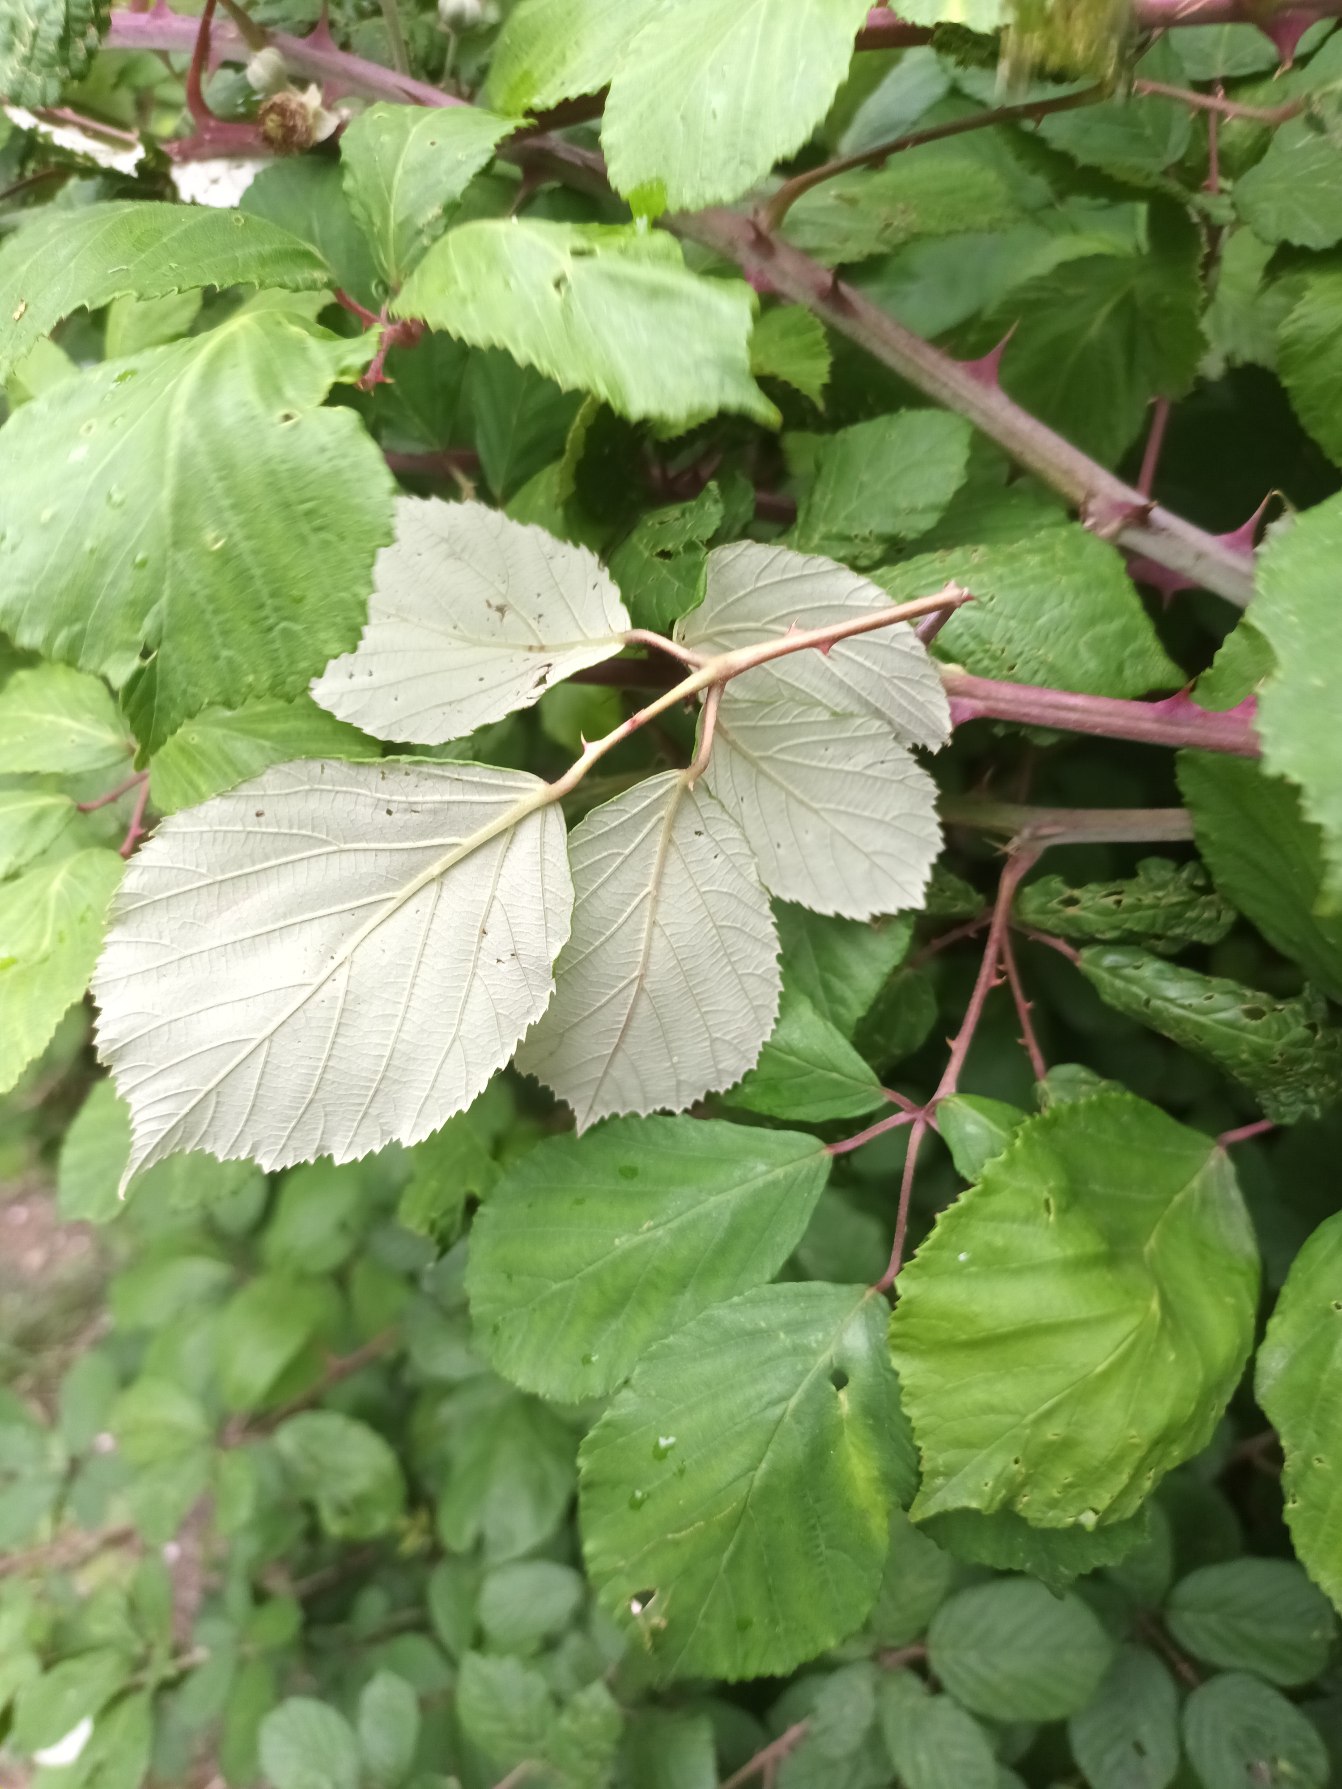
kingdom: Plantae
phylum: Tracheophyta
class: Magnoliopsida
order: Rosales
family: Rosaceae
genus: Rubus
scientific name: Rubus ulmifolius
